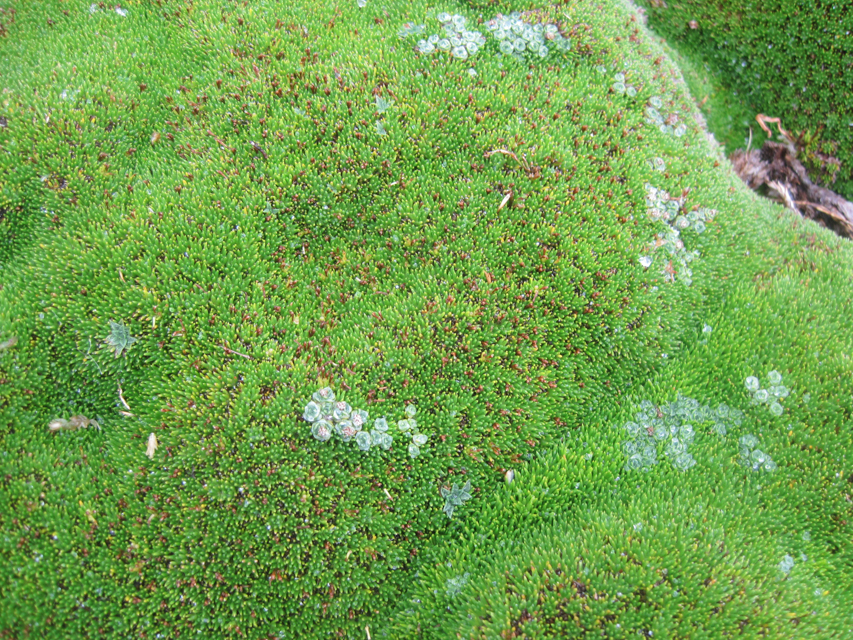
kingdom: Plantae
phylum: Tracheophyta
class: Magnoliopsida
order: Caryophyllales
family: Caryophyllaceae
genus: Colobanthus
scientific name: Colobanthus subulatus
